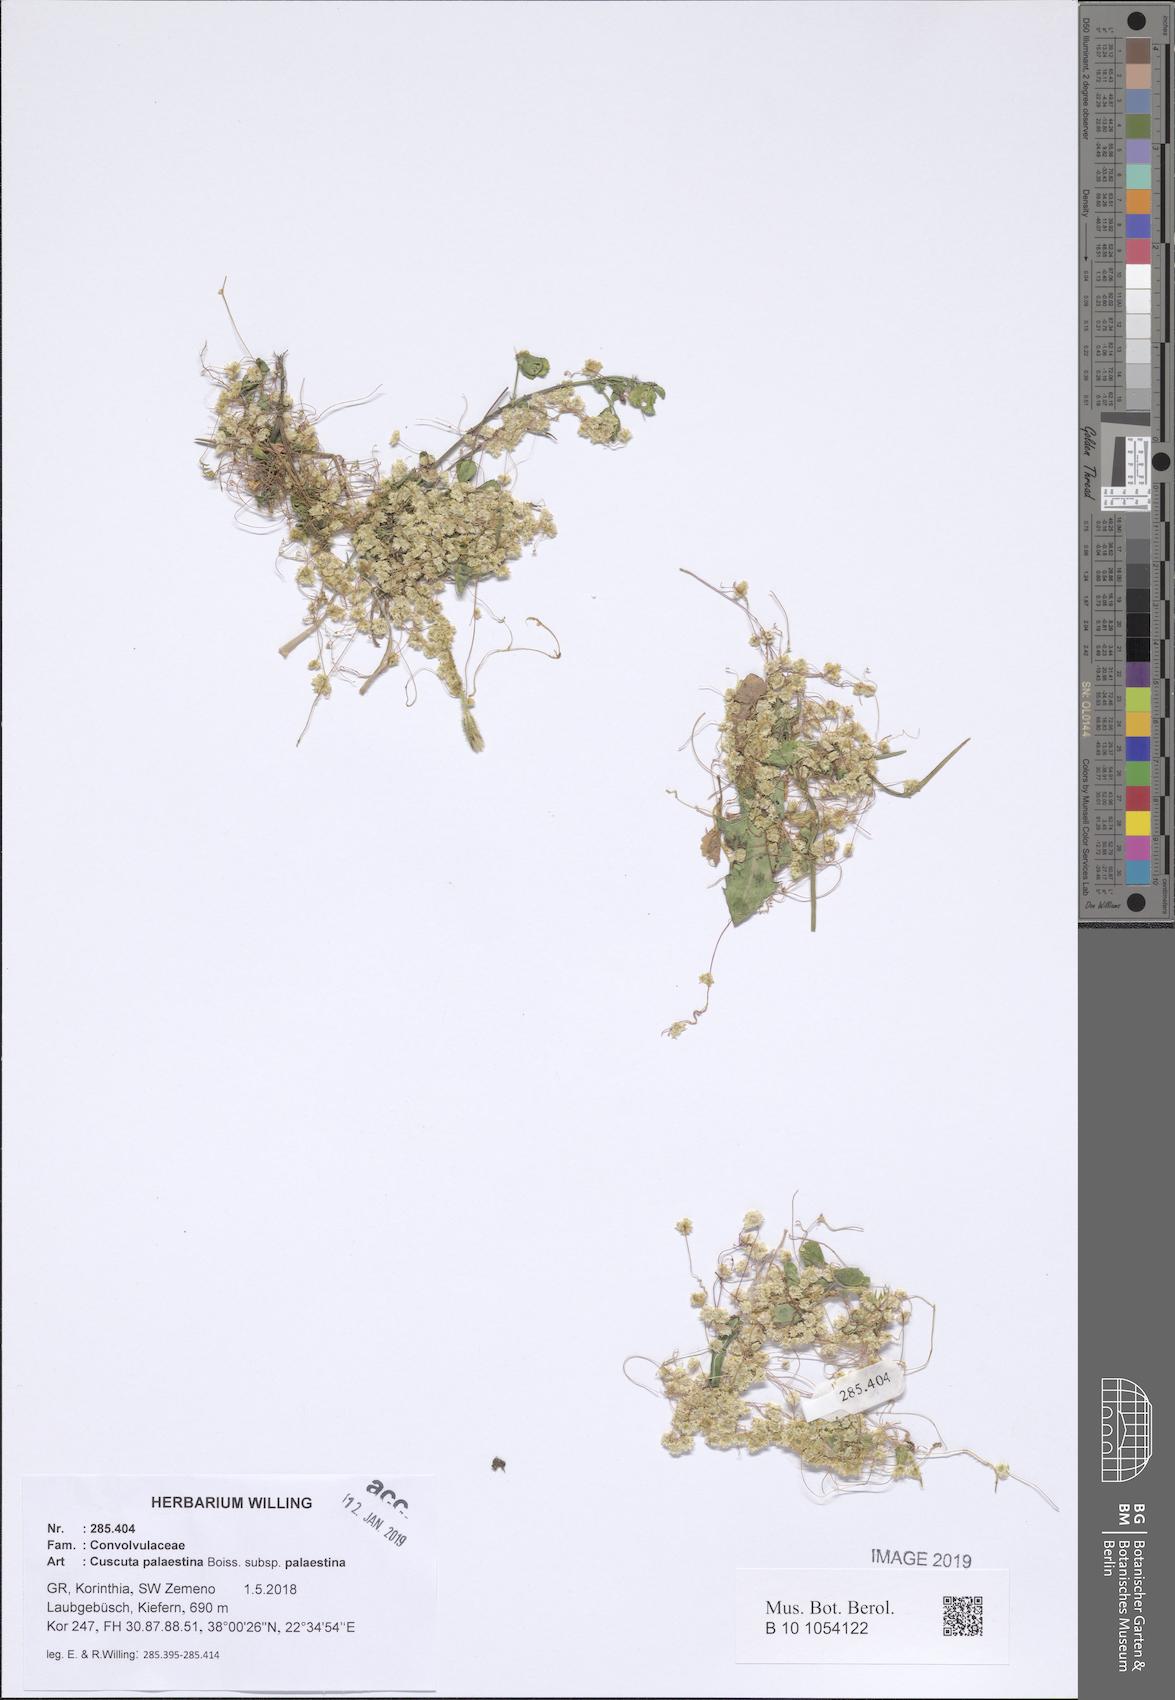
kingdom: Plantae
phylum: Tracheophyta
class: Magnoliopsida
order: Solanales
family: Convolvulaceae
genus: Cuscuta
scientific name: Cuscuta palaestina
